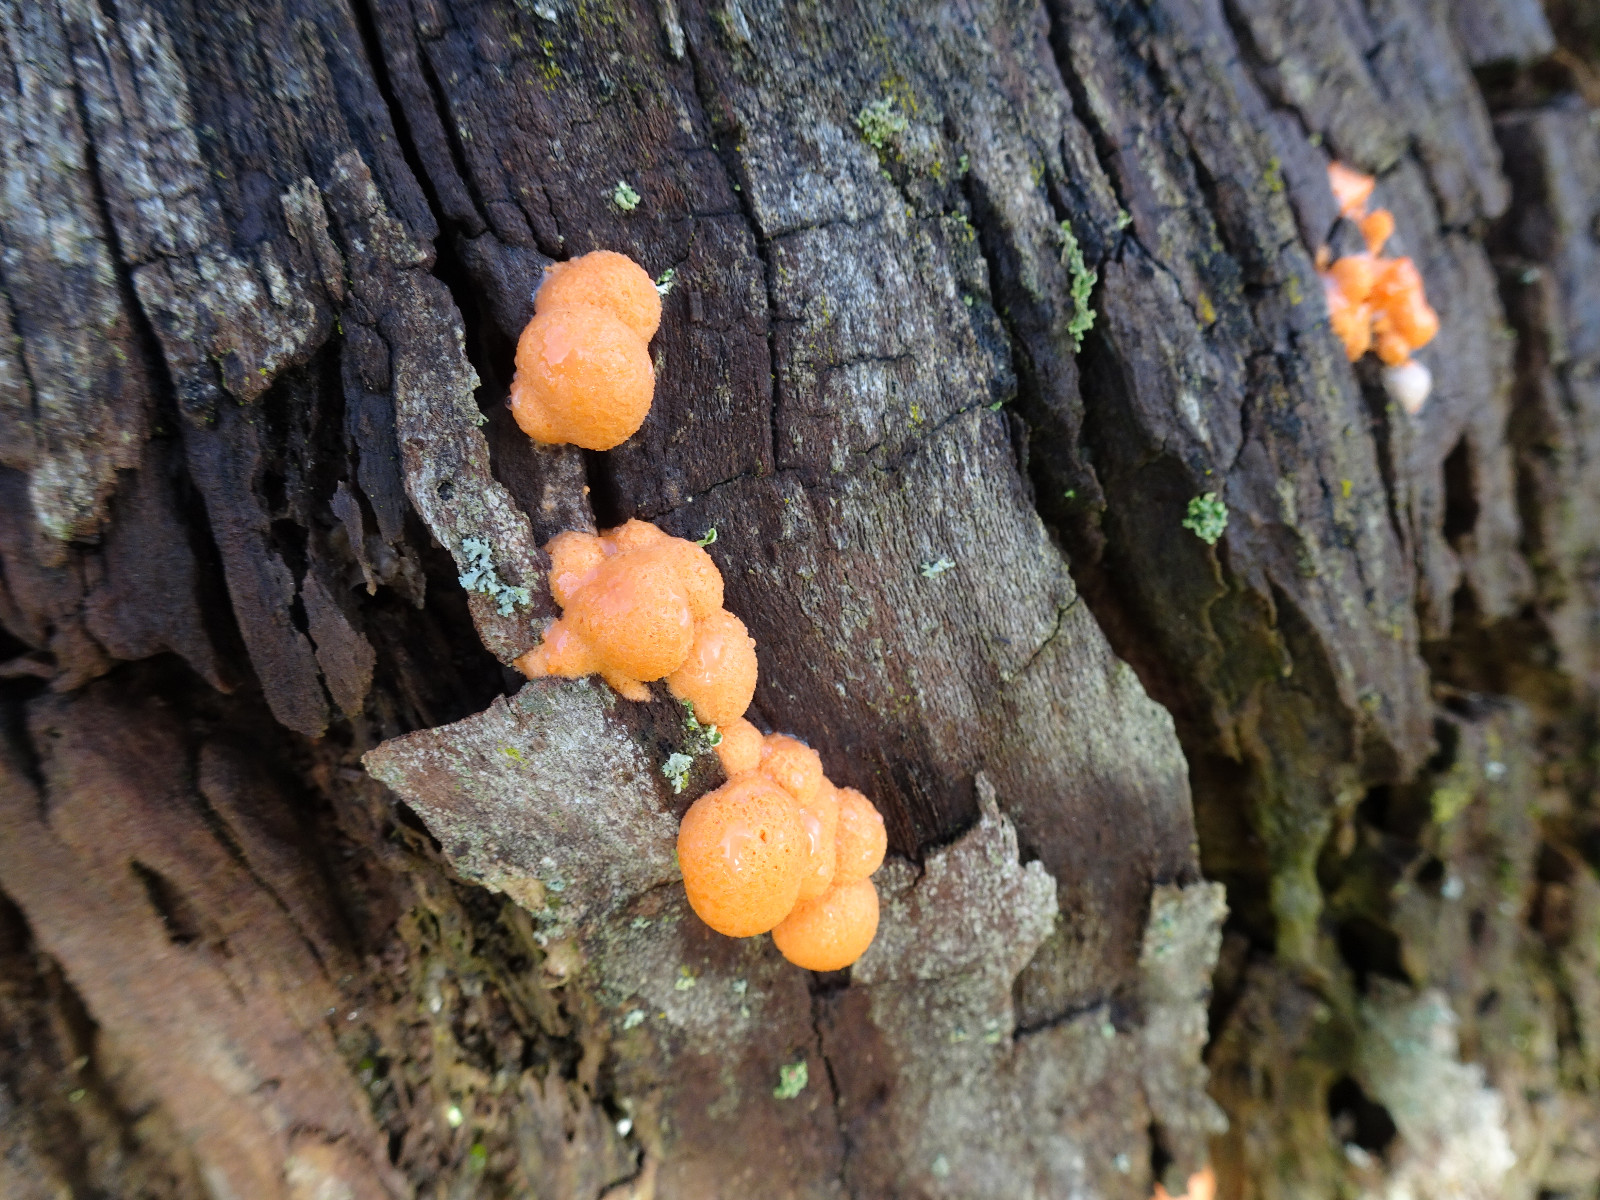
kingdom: Protozoa
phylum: Mycetozoa
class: Myxomycetes
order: Cribrariales
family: Tubiferaceae
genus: Lycogala
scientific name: Lycogala epidendrum
